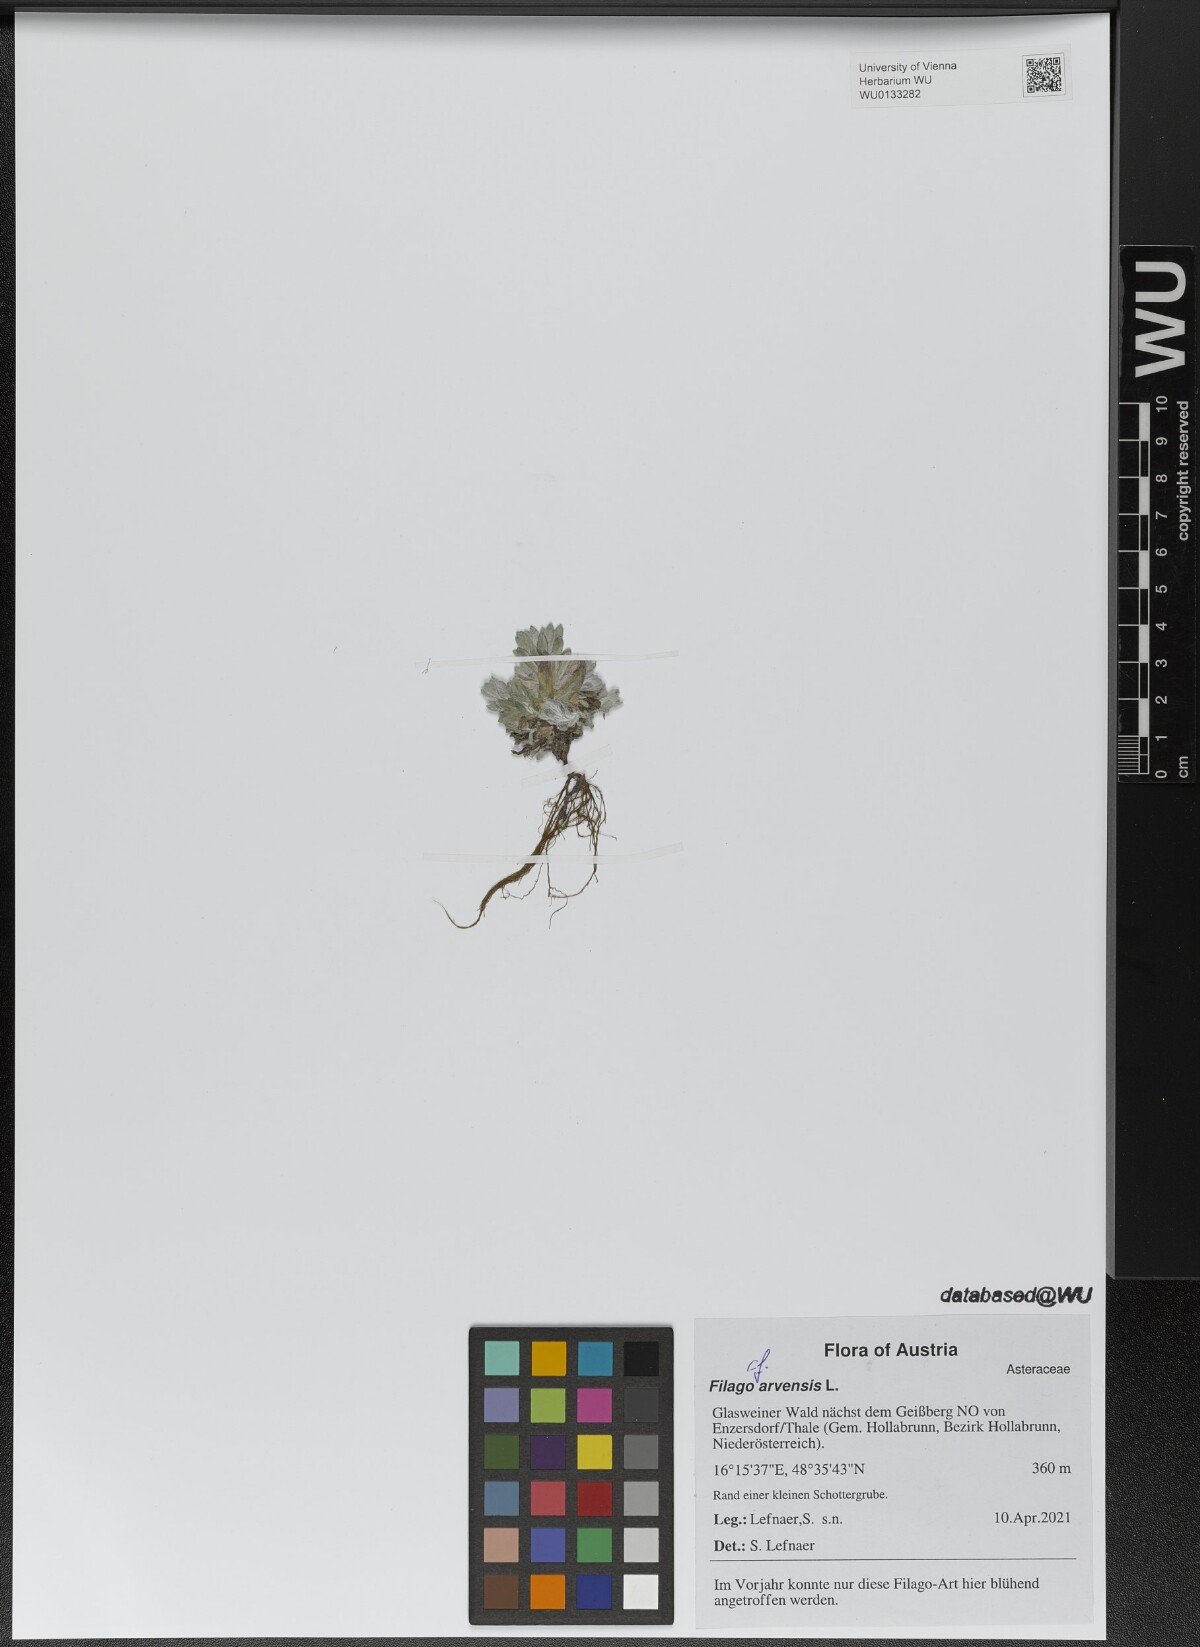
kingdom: Plantae
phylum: Tracheophyta
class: Magnoliopsida
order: Asterales
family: Asteraceae
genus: Filago
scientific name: Filago arvensis
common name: Field cudweed
